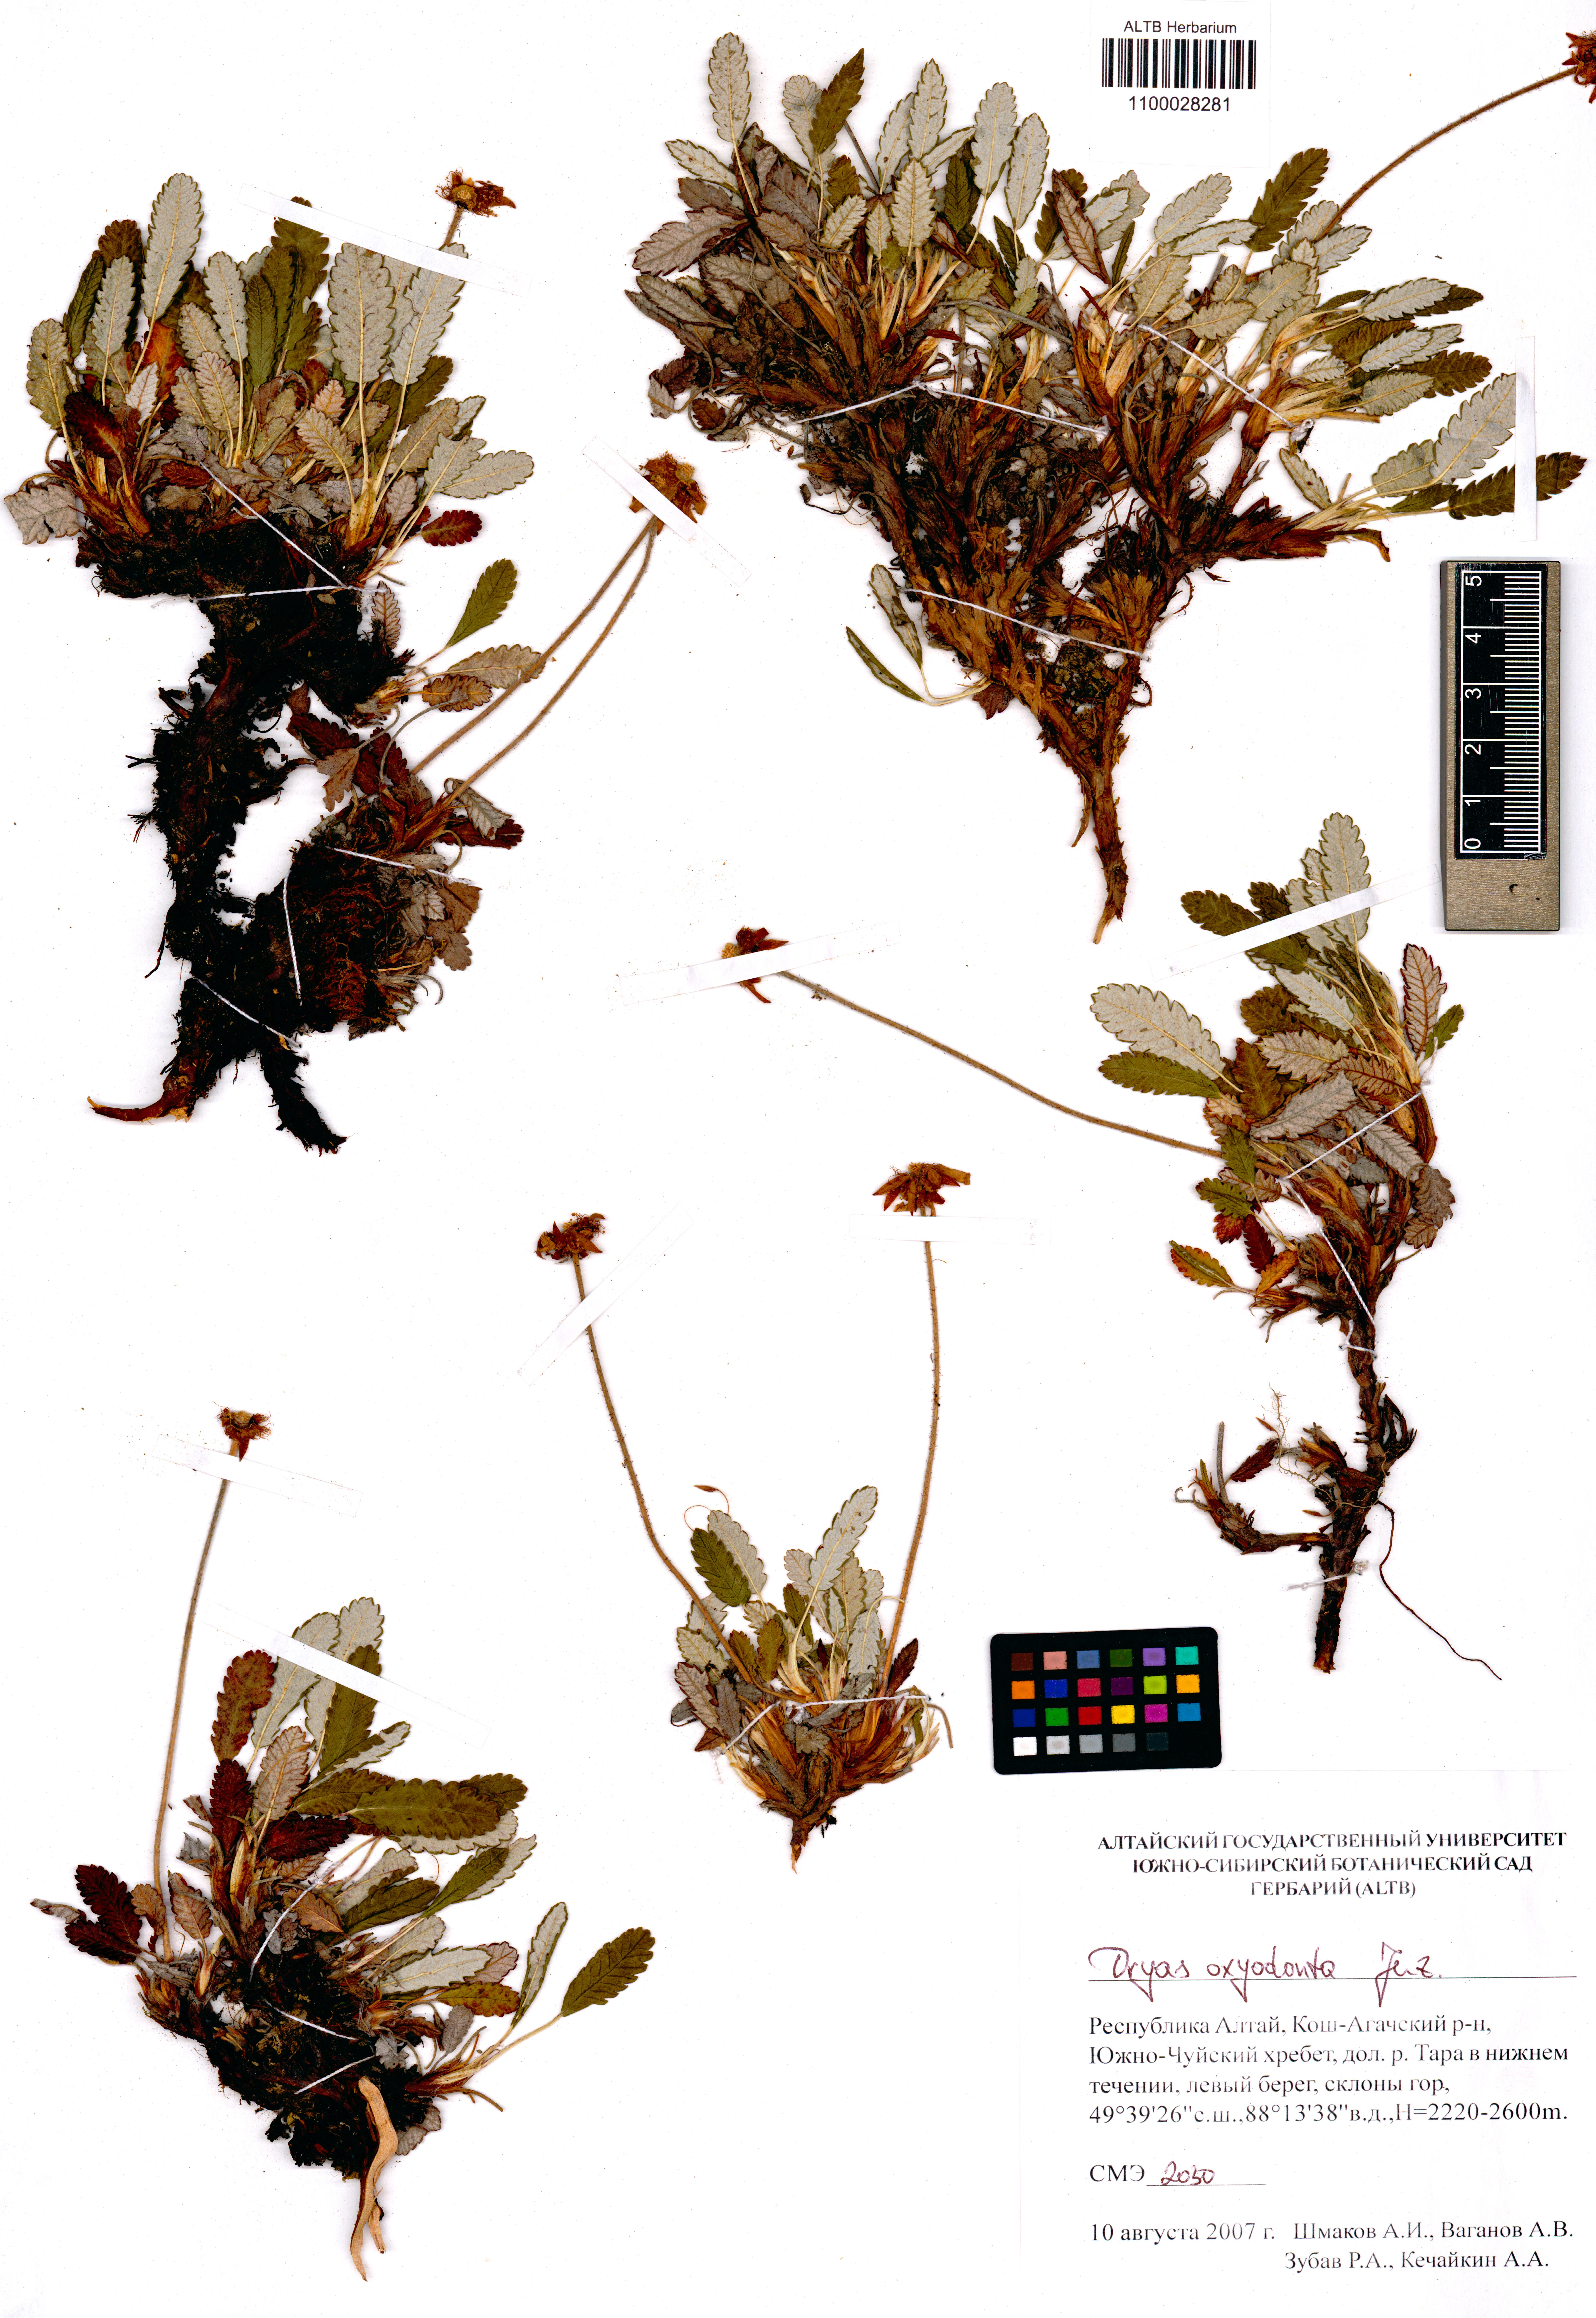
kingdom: Plantae
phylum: Tracheophyta
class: Magnoliopsida
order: Rosales
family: Rosaceae
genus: Dryas
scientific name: Dryas octopetala
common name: Eight-petal mountain-avens
